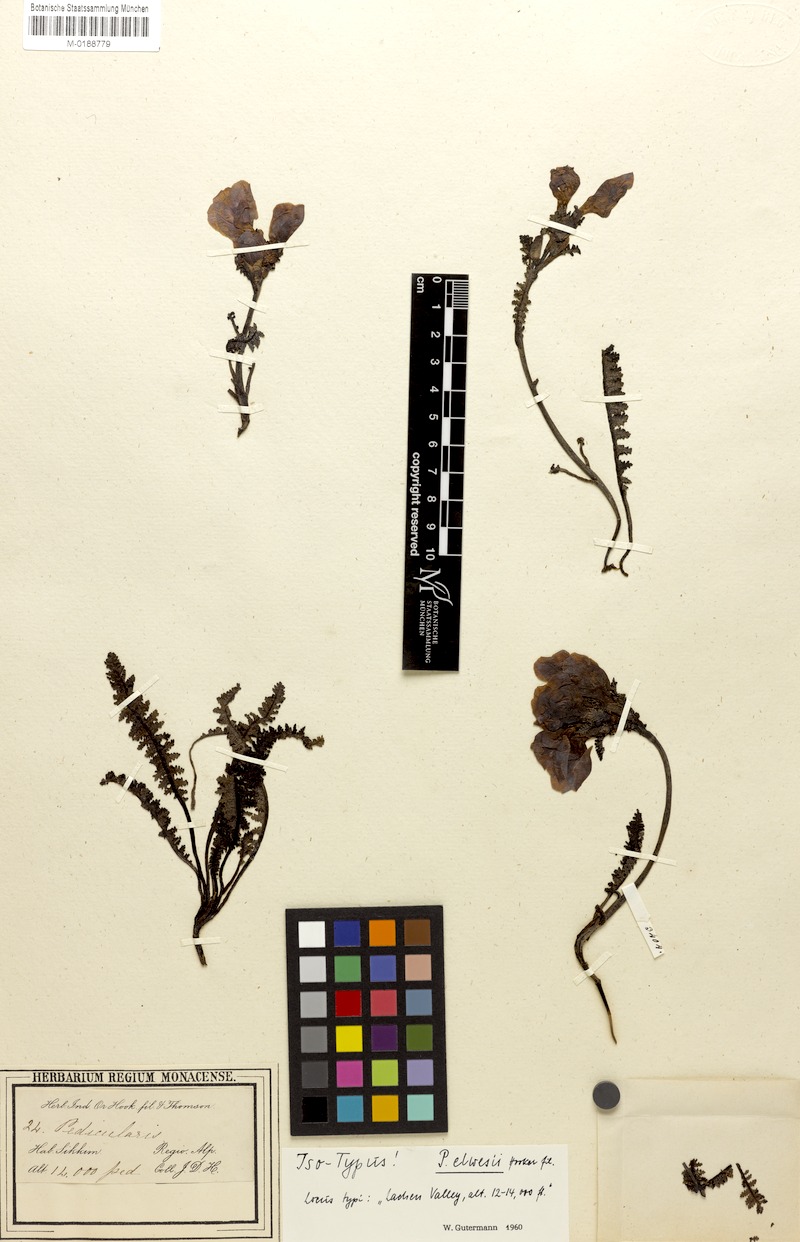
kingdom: Plantae
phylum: Tracheophyta
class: Magnoliopsida
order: Lamiales
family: Orobanchaceae
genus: Pedicularis
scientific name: Pedicularis elwesii
